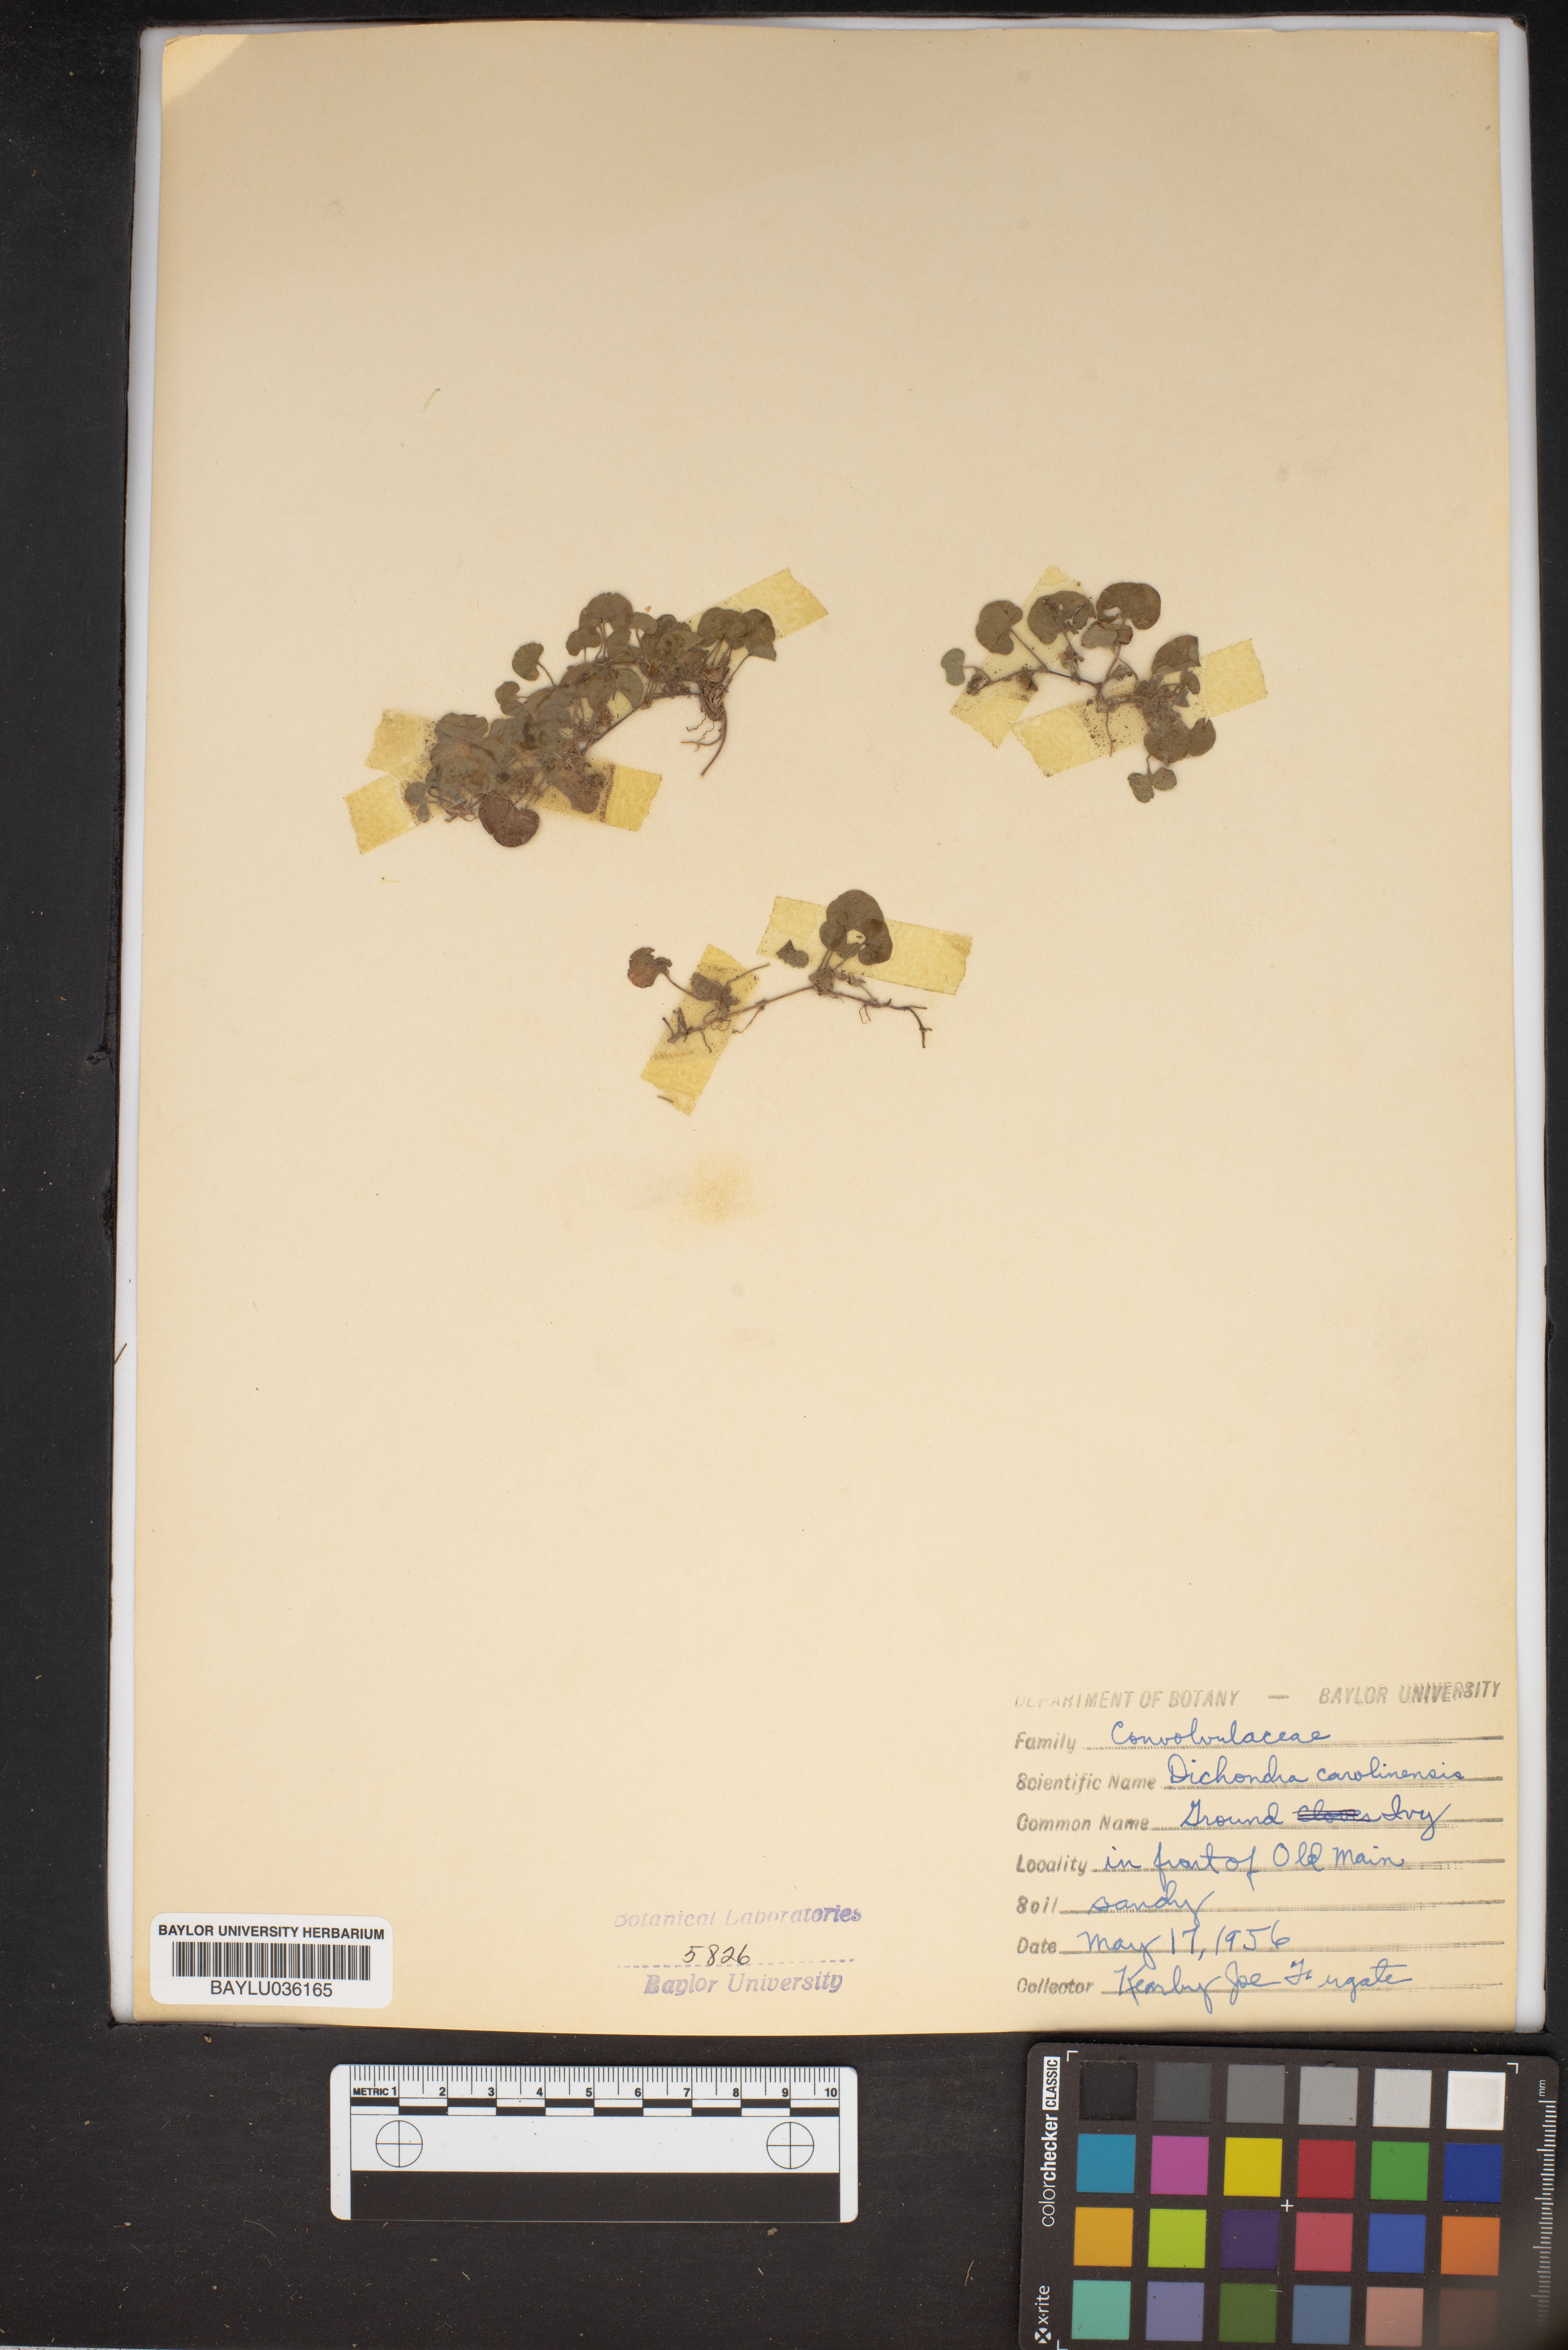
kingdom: Plantae
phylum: Tracheophyta
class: Magnoliopsida
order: Solanales
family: Convolvulaceae
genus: Dichondra
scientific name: Dichondra carolinensis
